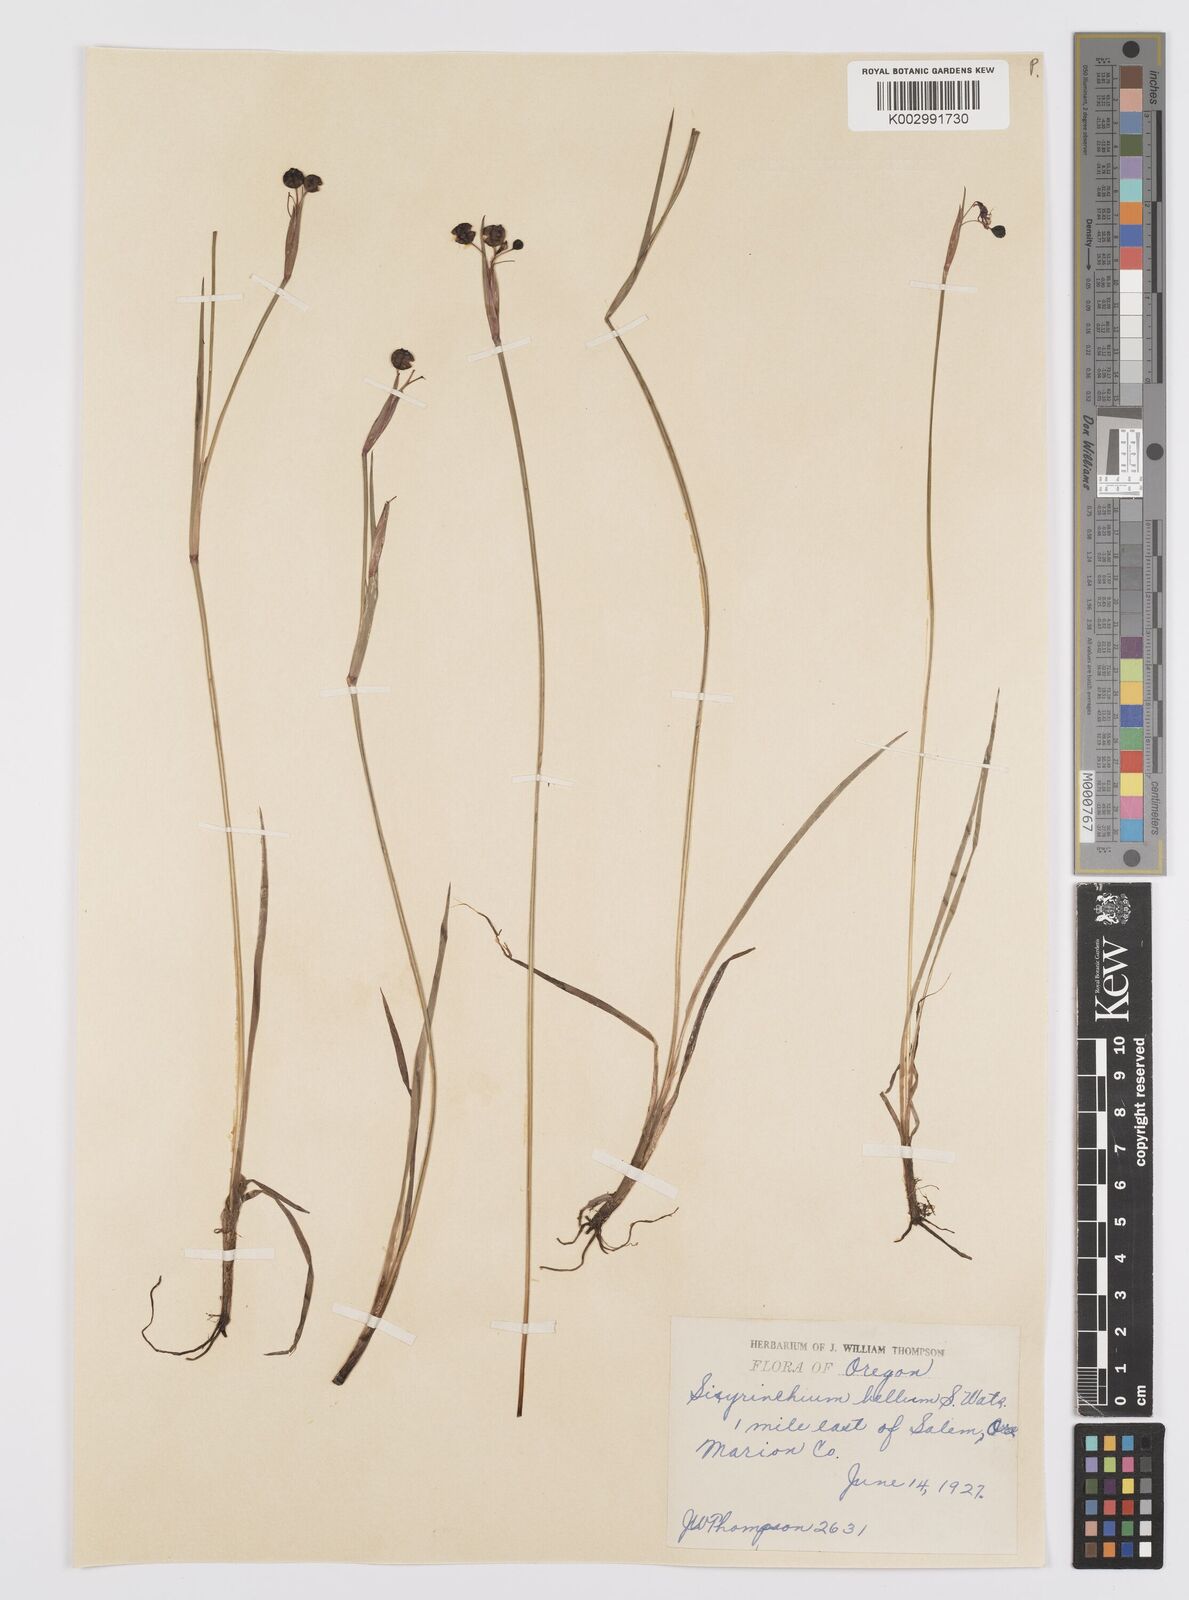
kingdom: Plantae
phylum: Tracheophyta
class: Liliopsida
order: Asparagales
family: Iridaceae
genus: Sisyrinchium
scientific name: Sisyrinchium bellum
